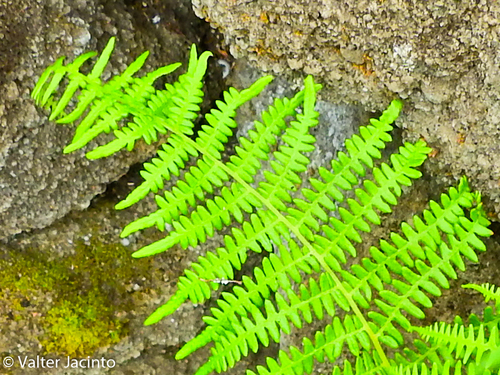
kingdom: Plantae
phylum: Tracheophyta
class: Polypodiopsida
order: Polypodiales
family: Dennstaedtiaceae
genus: Pteridium
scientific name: Pteridium aquilinum
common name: Bracken
